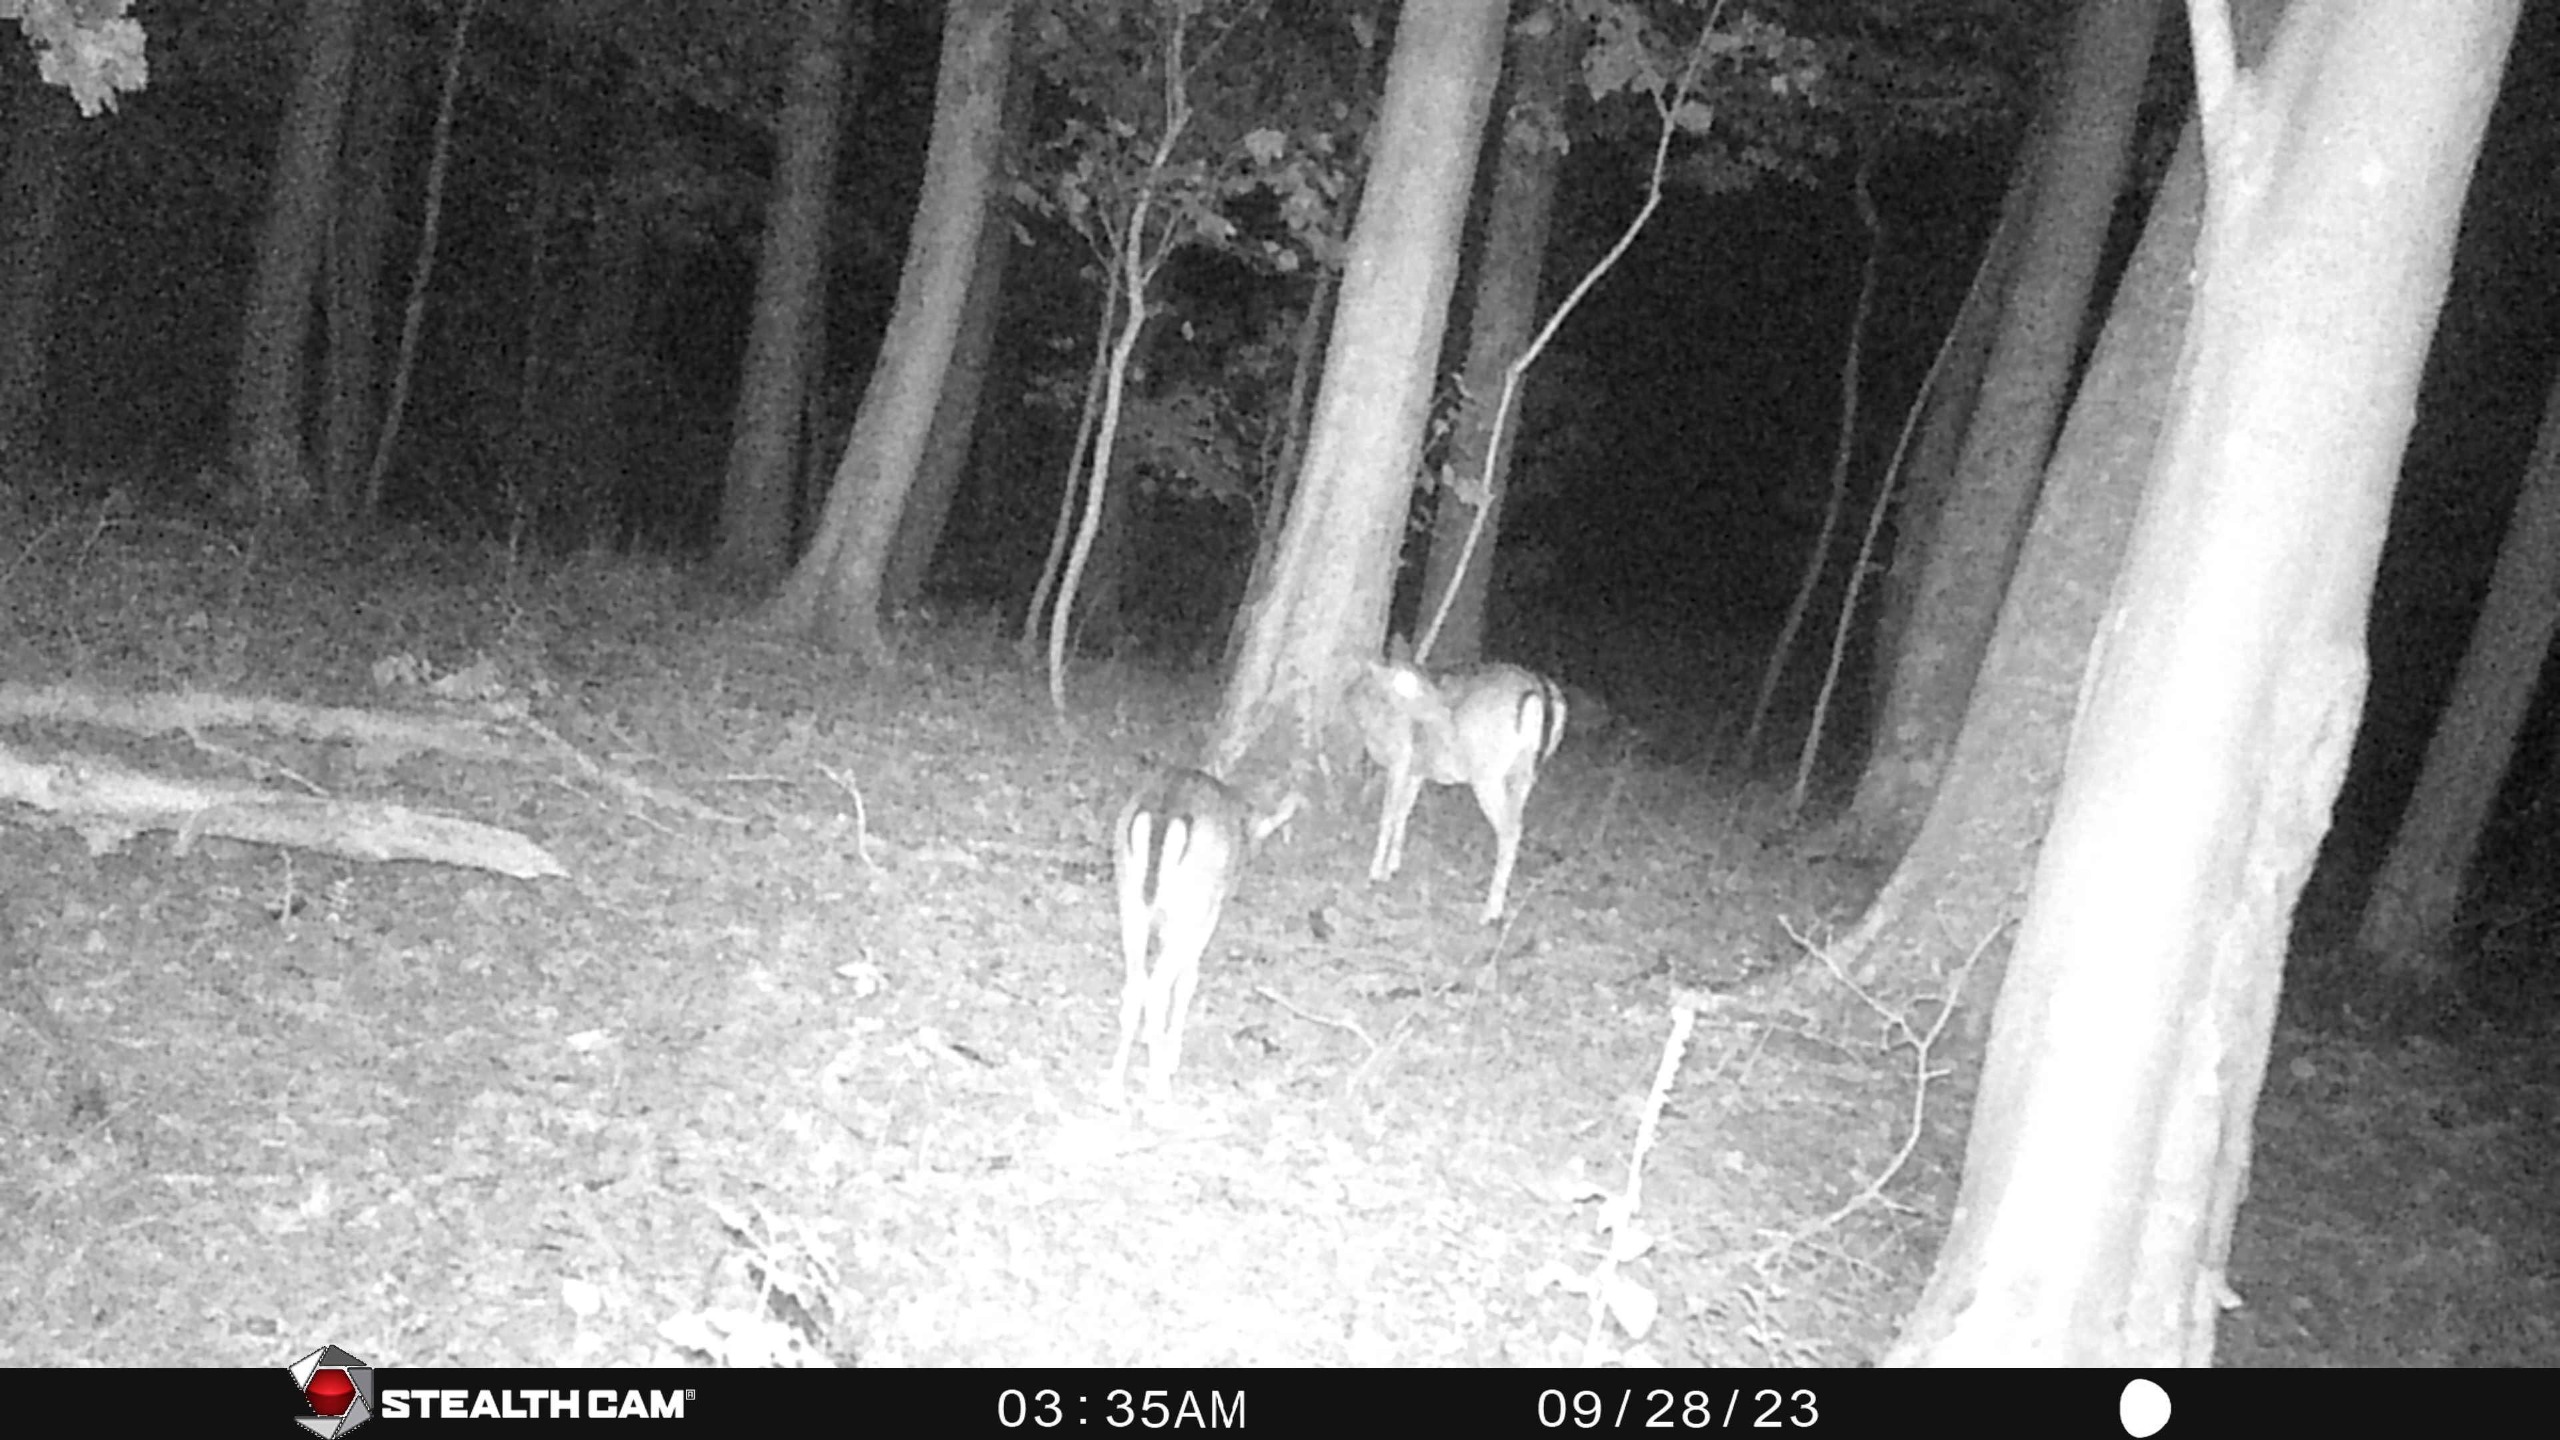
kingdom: Animalia
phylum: Chordata
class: Mammalia
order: Artiodactyla
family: Cervidae
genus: Dama
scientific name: Dama dama
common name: Dådyr
